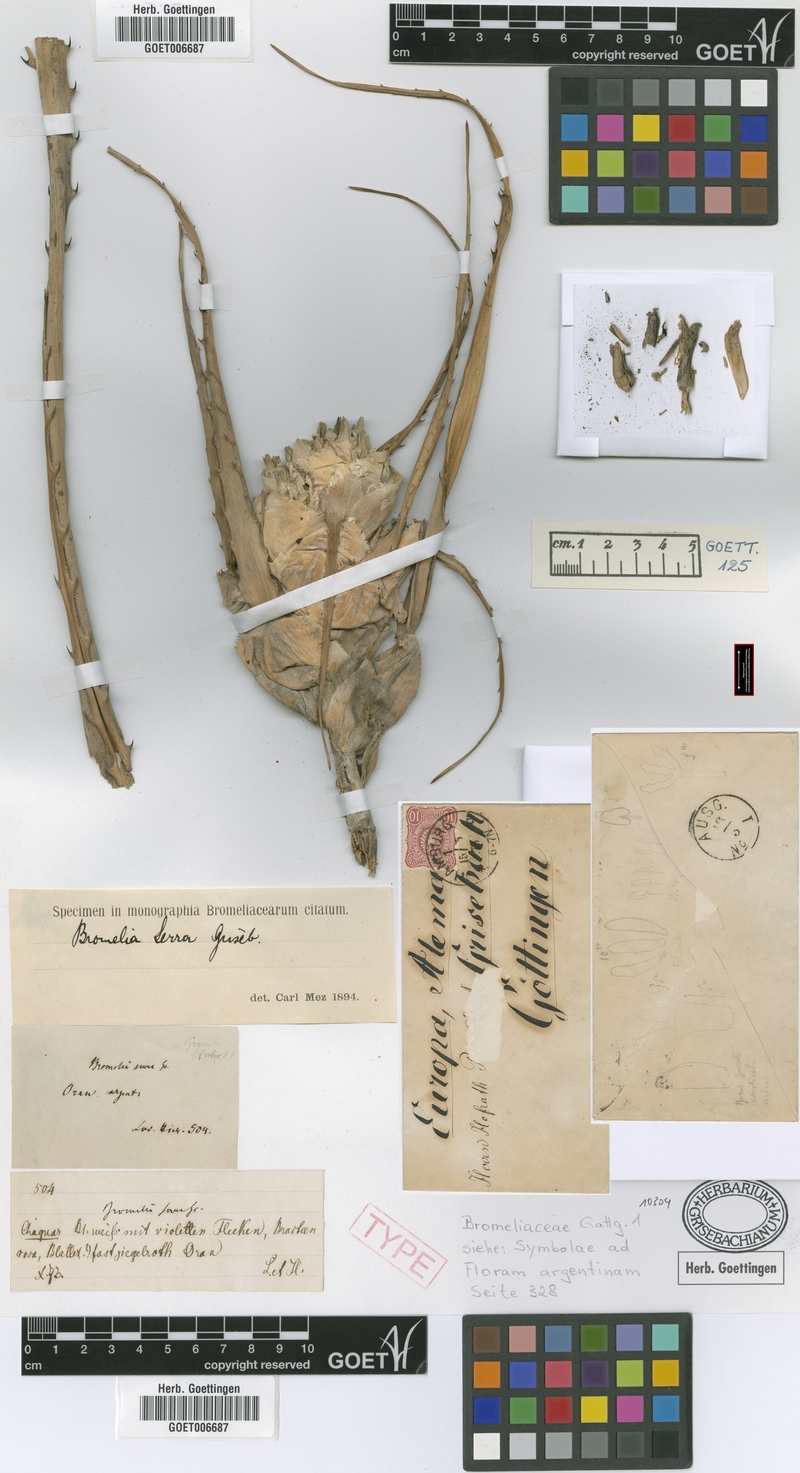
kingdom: Plantae
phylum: Tracheophyta
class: Liliopsida
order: Poales
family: Bromeliaceae
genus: Bromelia
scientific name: Bromelia serra
